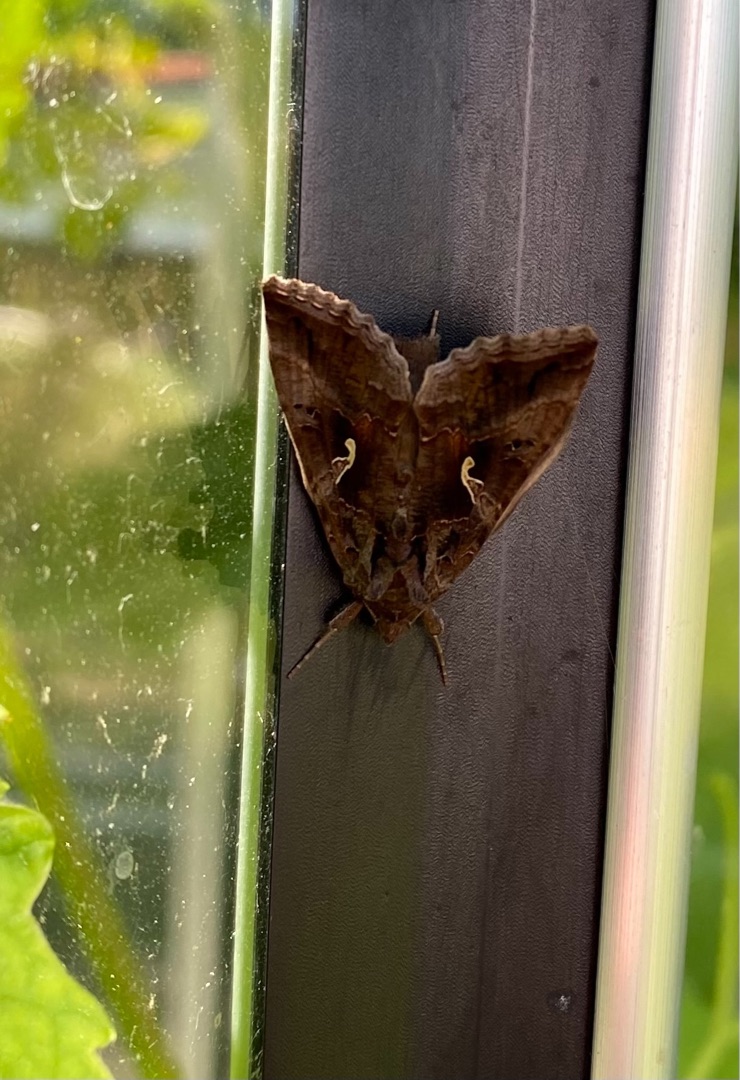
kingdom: Animalia
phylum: Arthropoda
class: Insecta
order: Lepidoptera
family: Noctuidae
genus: Autographa
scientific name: Autographa gamma
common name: Gammaugle
